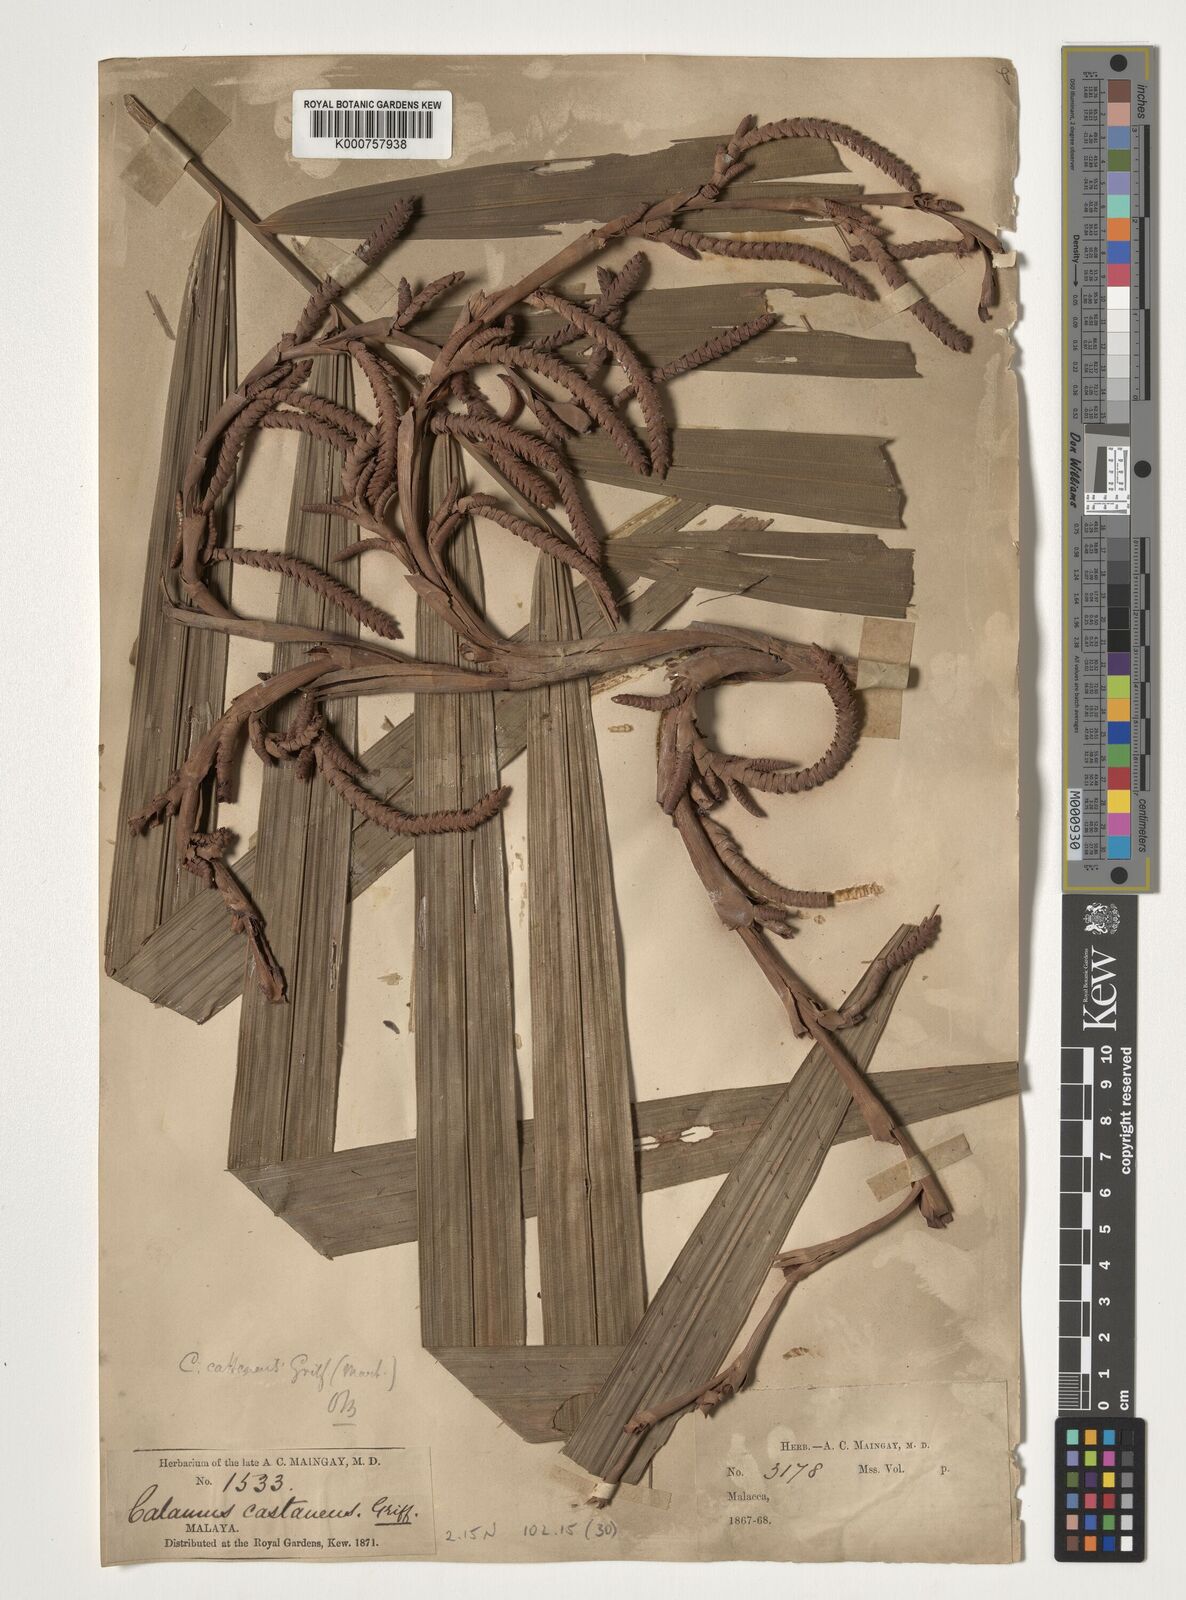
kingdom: Plantae
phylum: Tracheophyta
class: Liliopsida
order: Arecales
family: Arecaceae
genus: Calamus
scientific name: Calamus castaneus
